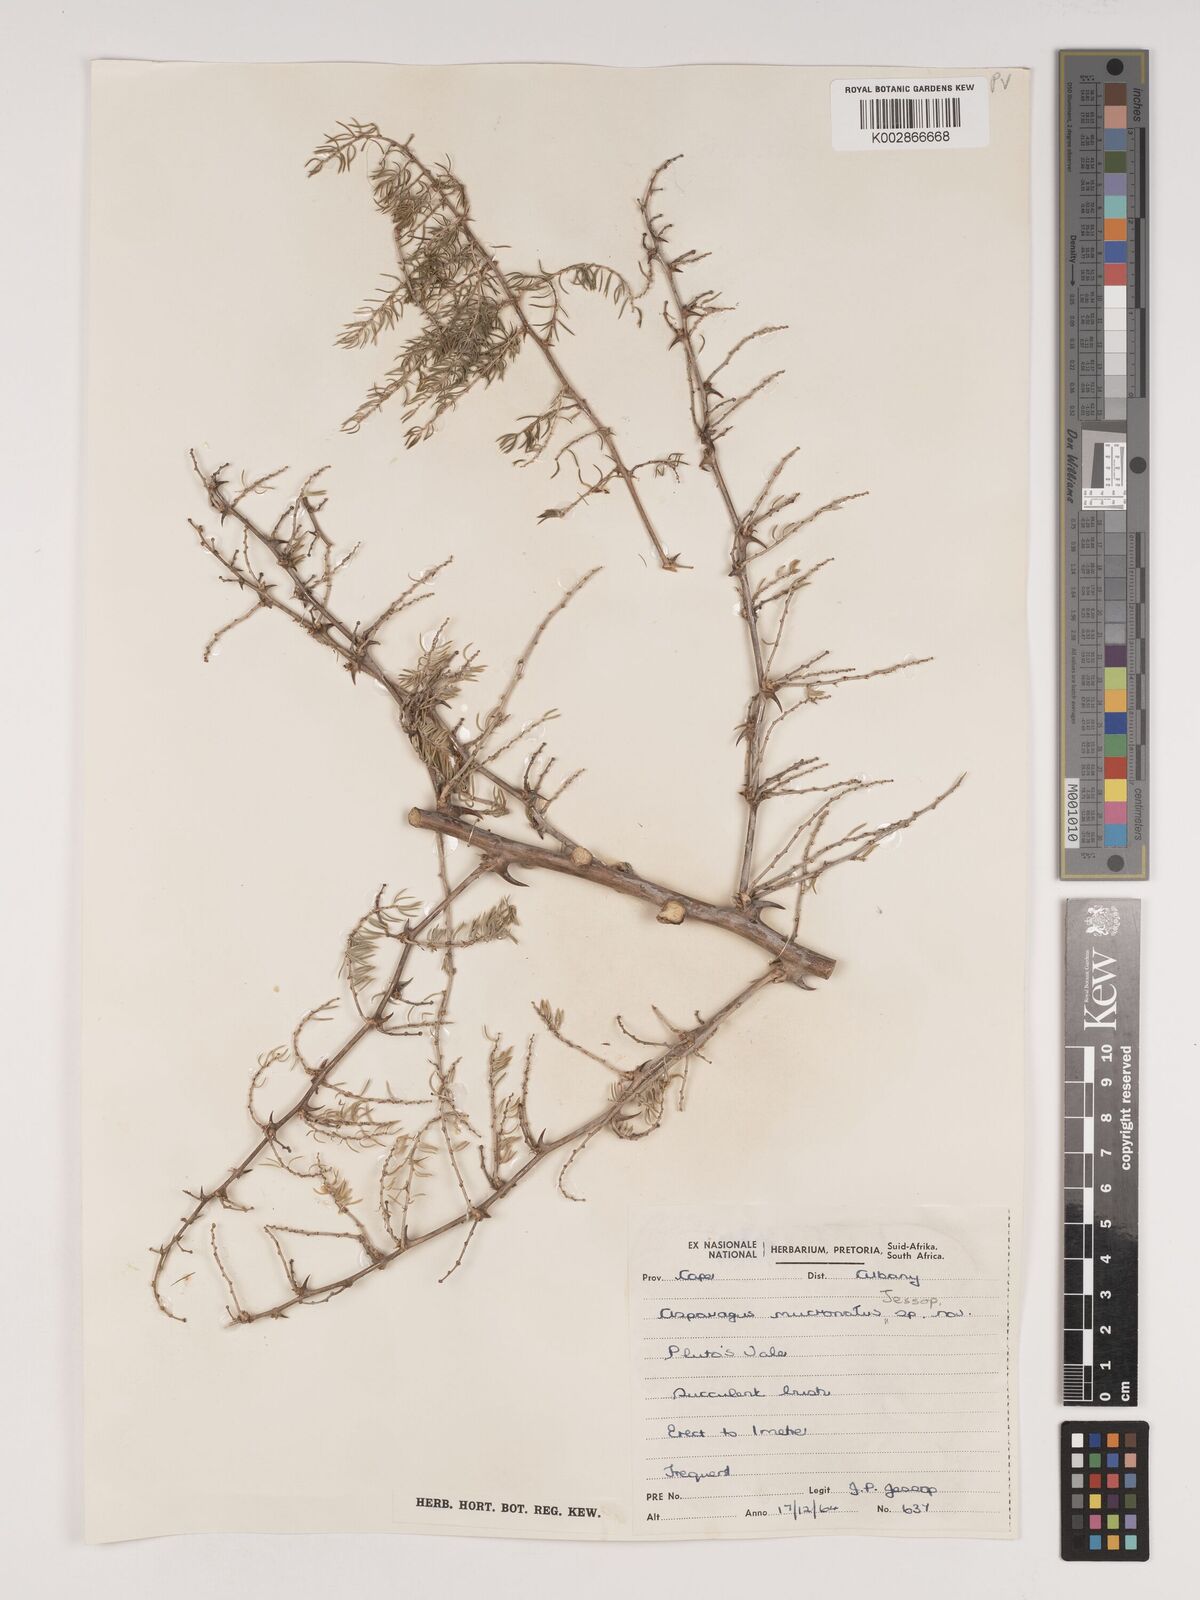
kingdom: Plantae
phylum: Tracheophyta
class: Liliopsida
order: Asparagales
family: Asparagaceae
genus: Asparagus
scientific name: Asparagus mucronatus
